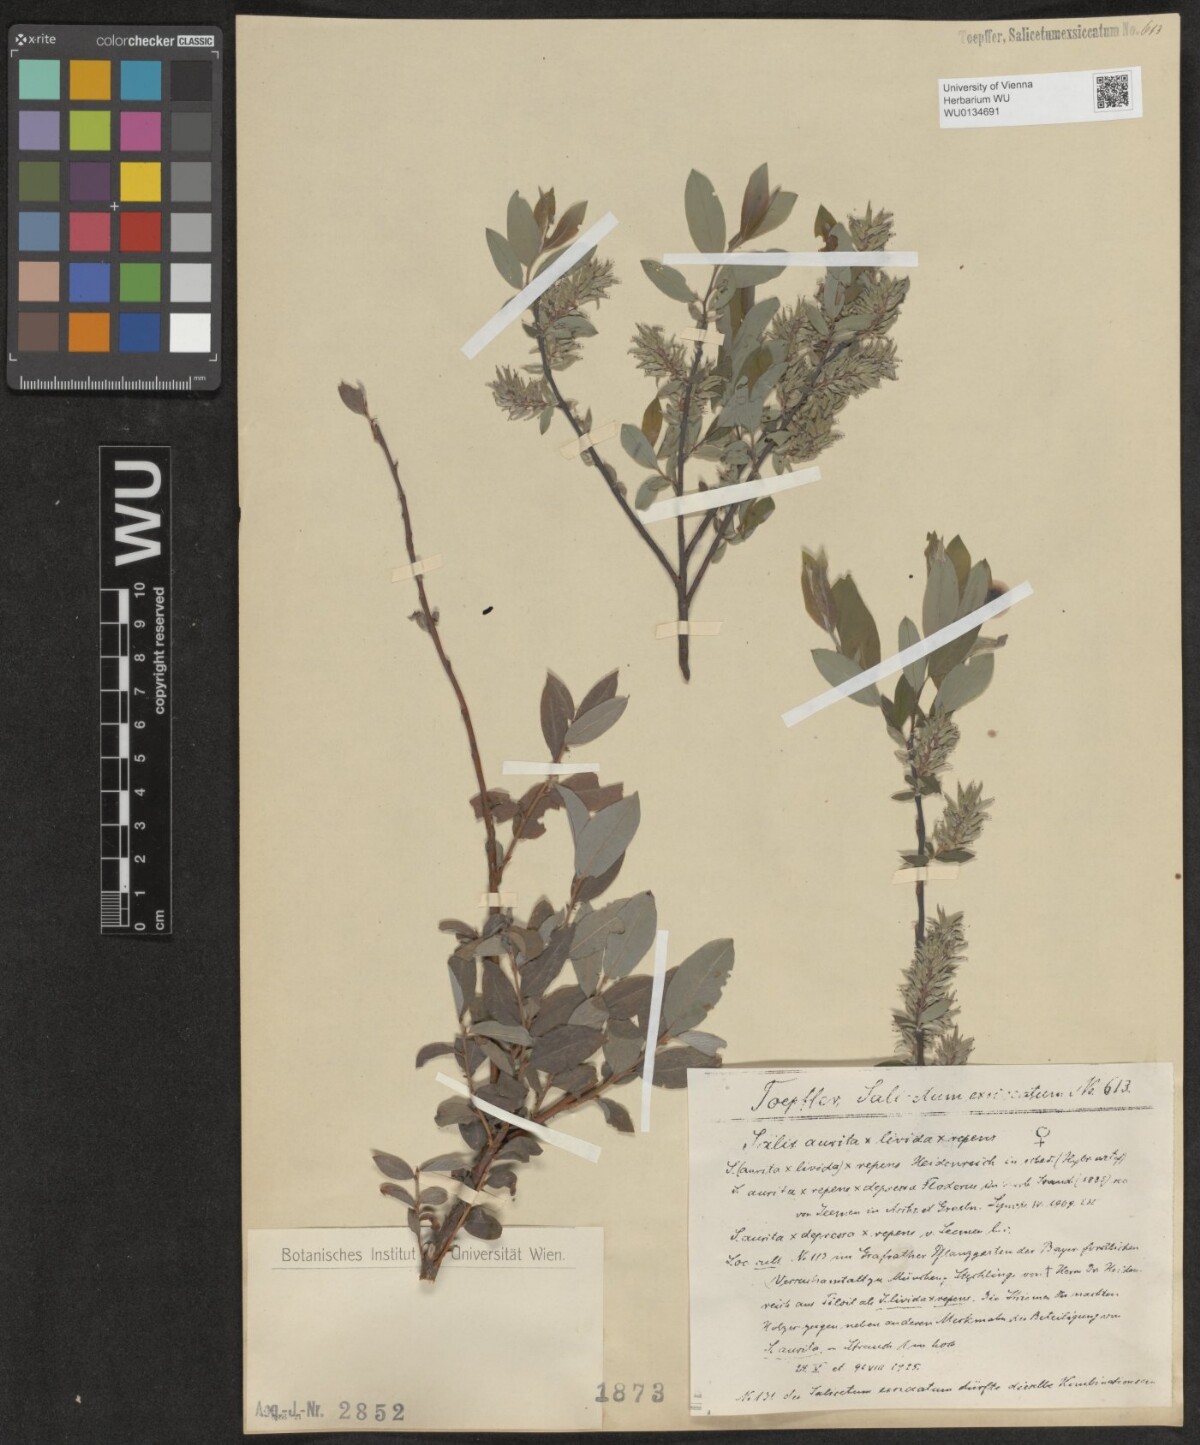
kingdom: Plantae
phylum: Tracheophyta
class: Magnoliopsida
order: Malpighiales
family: Salicaceae
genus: Salix
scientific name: Salix
